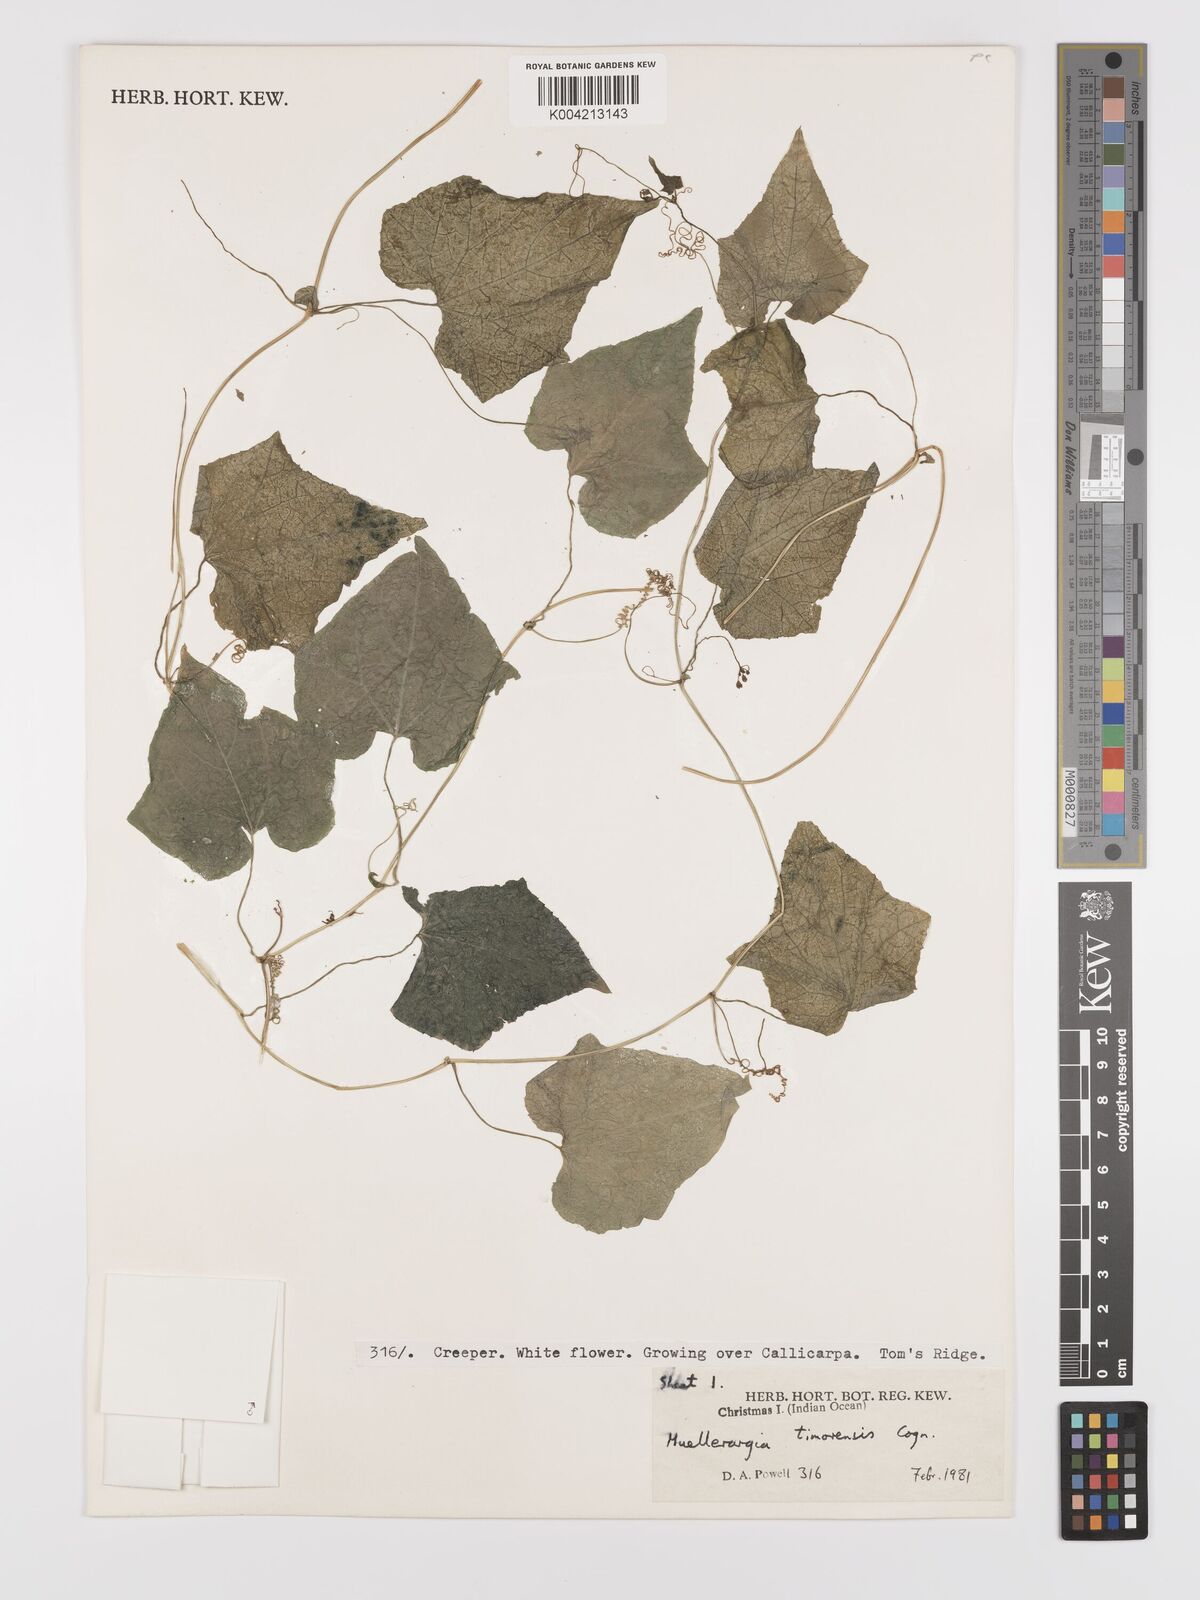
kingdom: Plantae
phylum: Tracheophyta
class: Magnoliopsida
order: Cucurbitales
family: Cucurbitaceae
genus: Muellerargia
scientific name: Muellerargia
